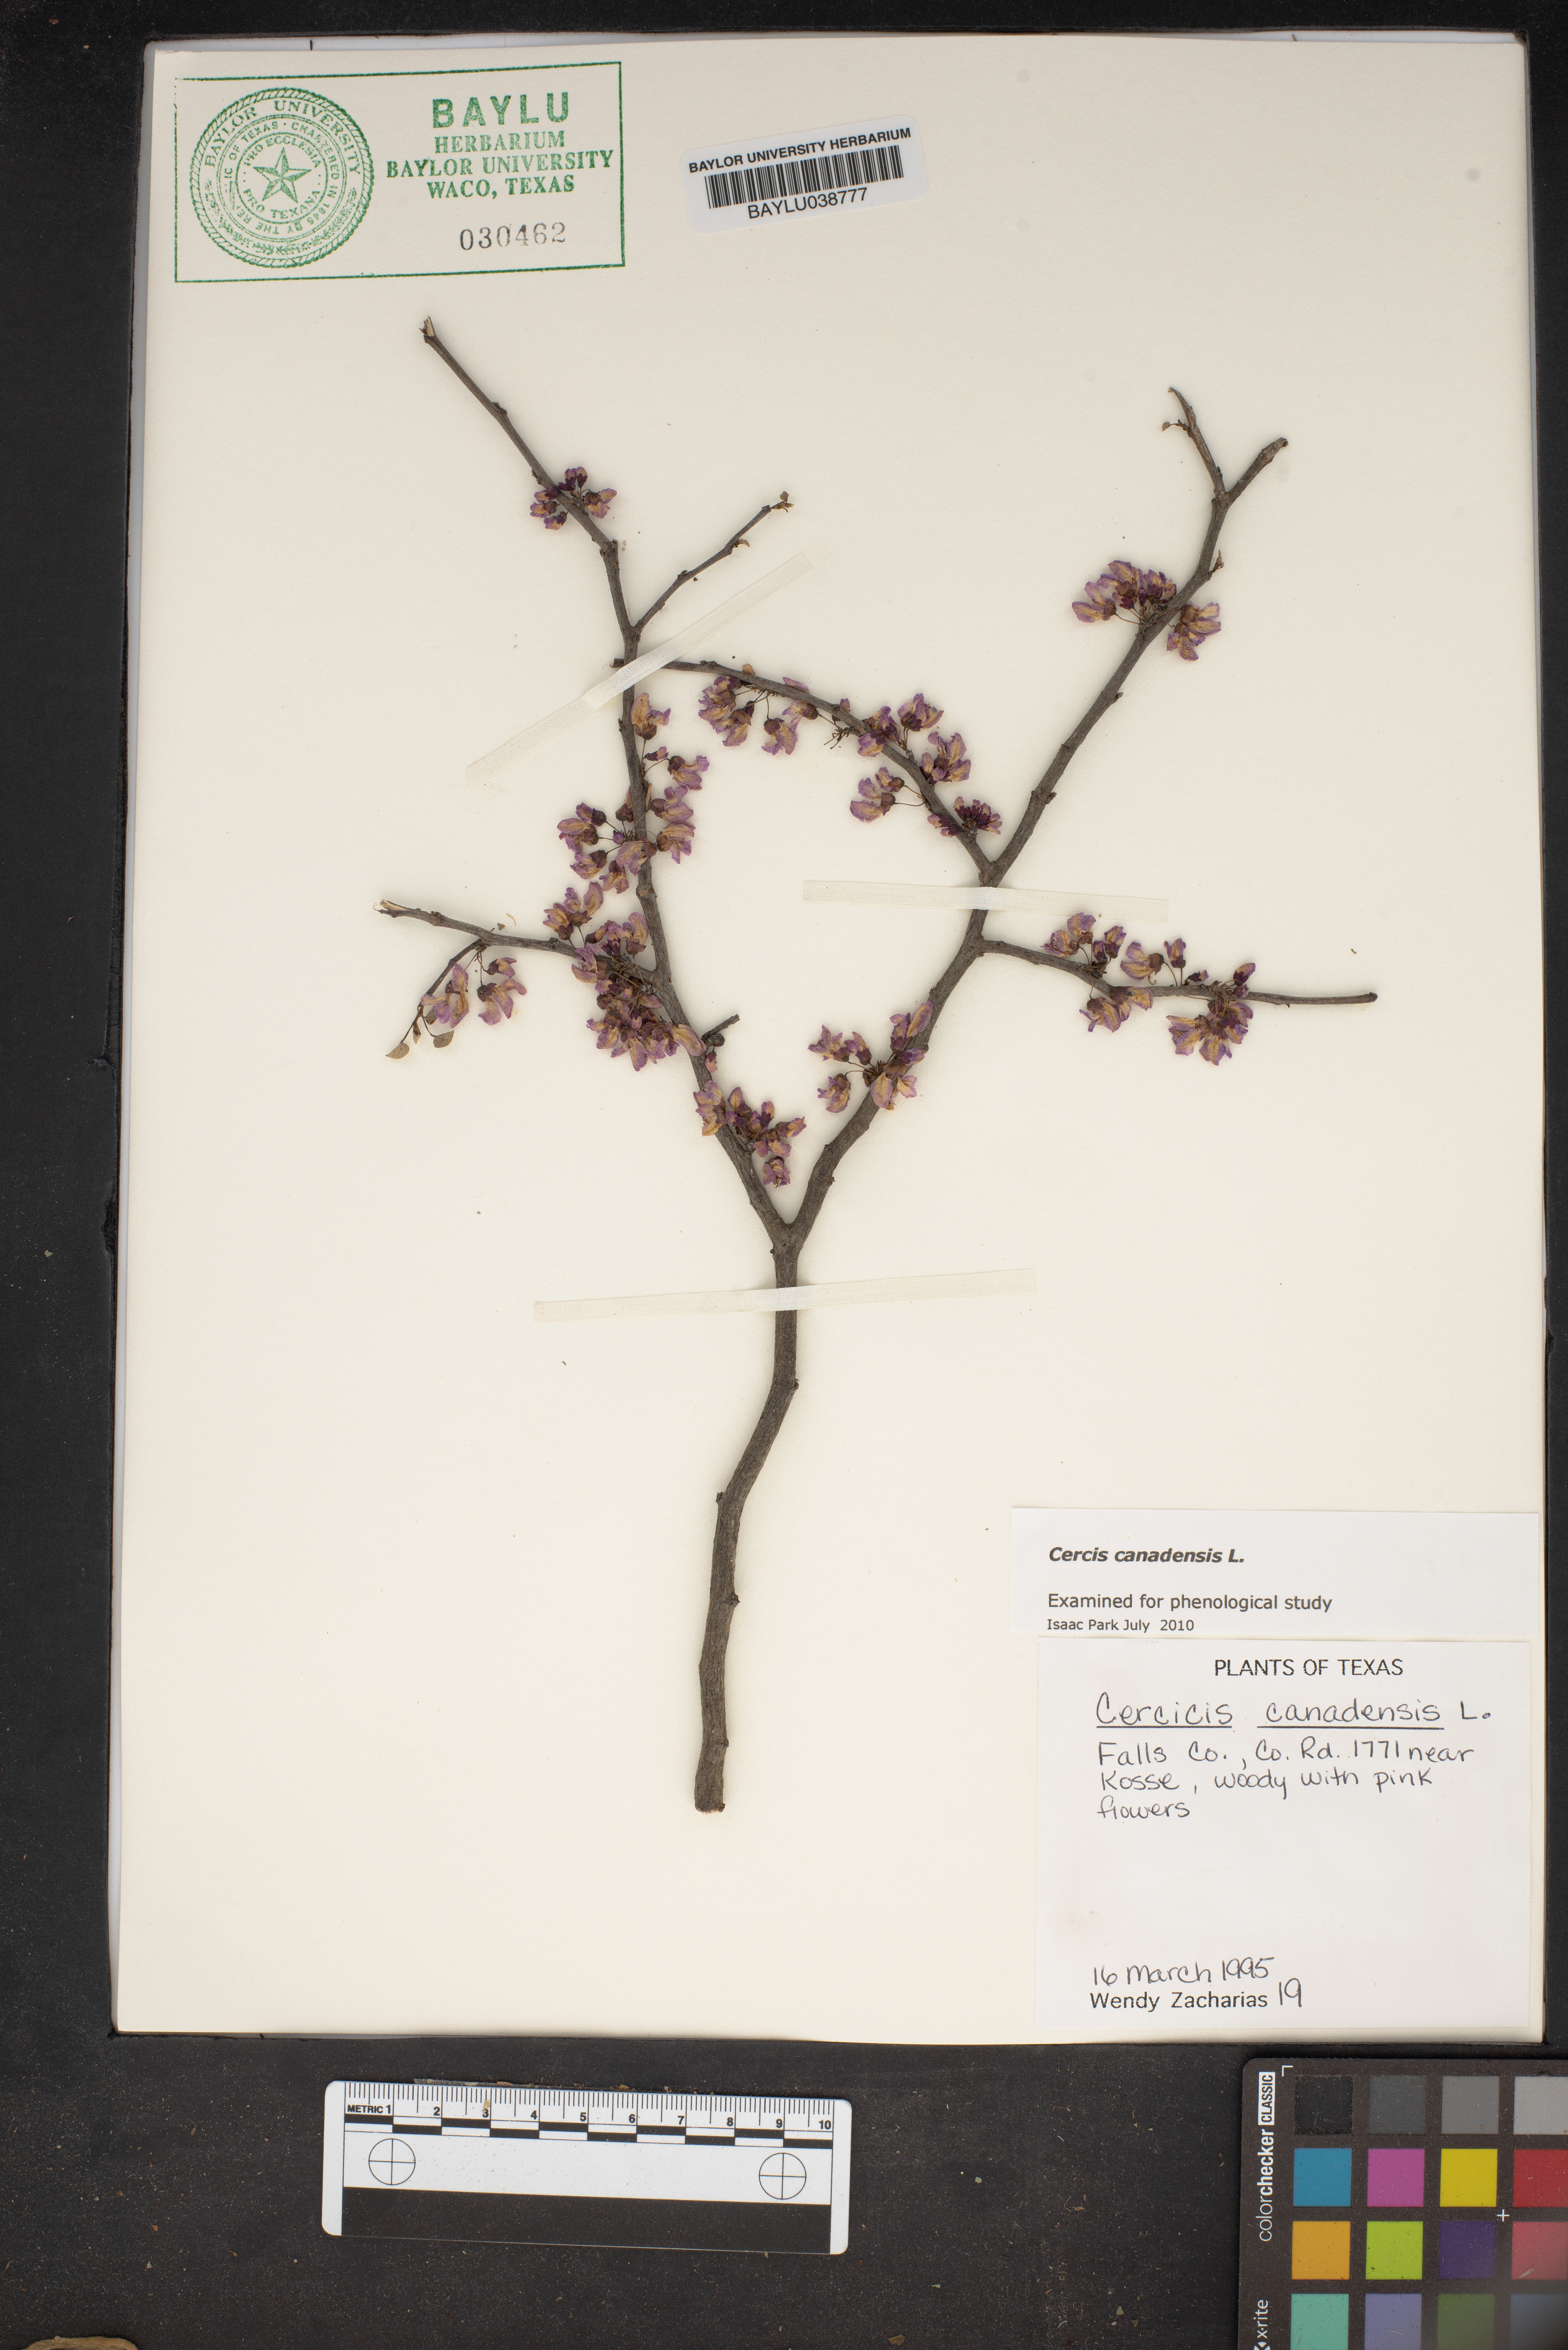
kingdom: Plantae
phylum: Tracheophyta
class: Magnoliopsida
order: Fabales
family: Fabaceae
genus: Cercis
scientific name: Cercis canadensis
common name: Eastern redbud
